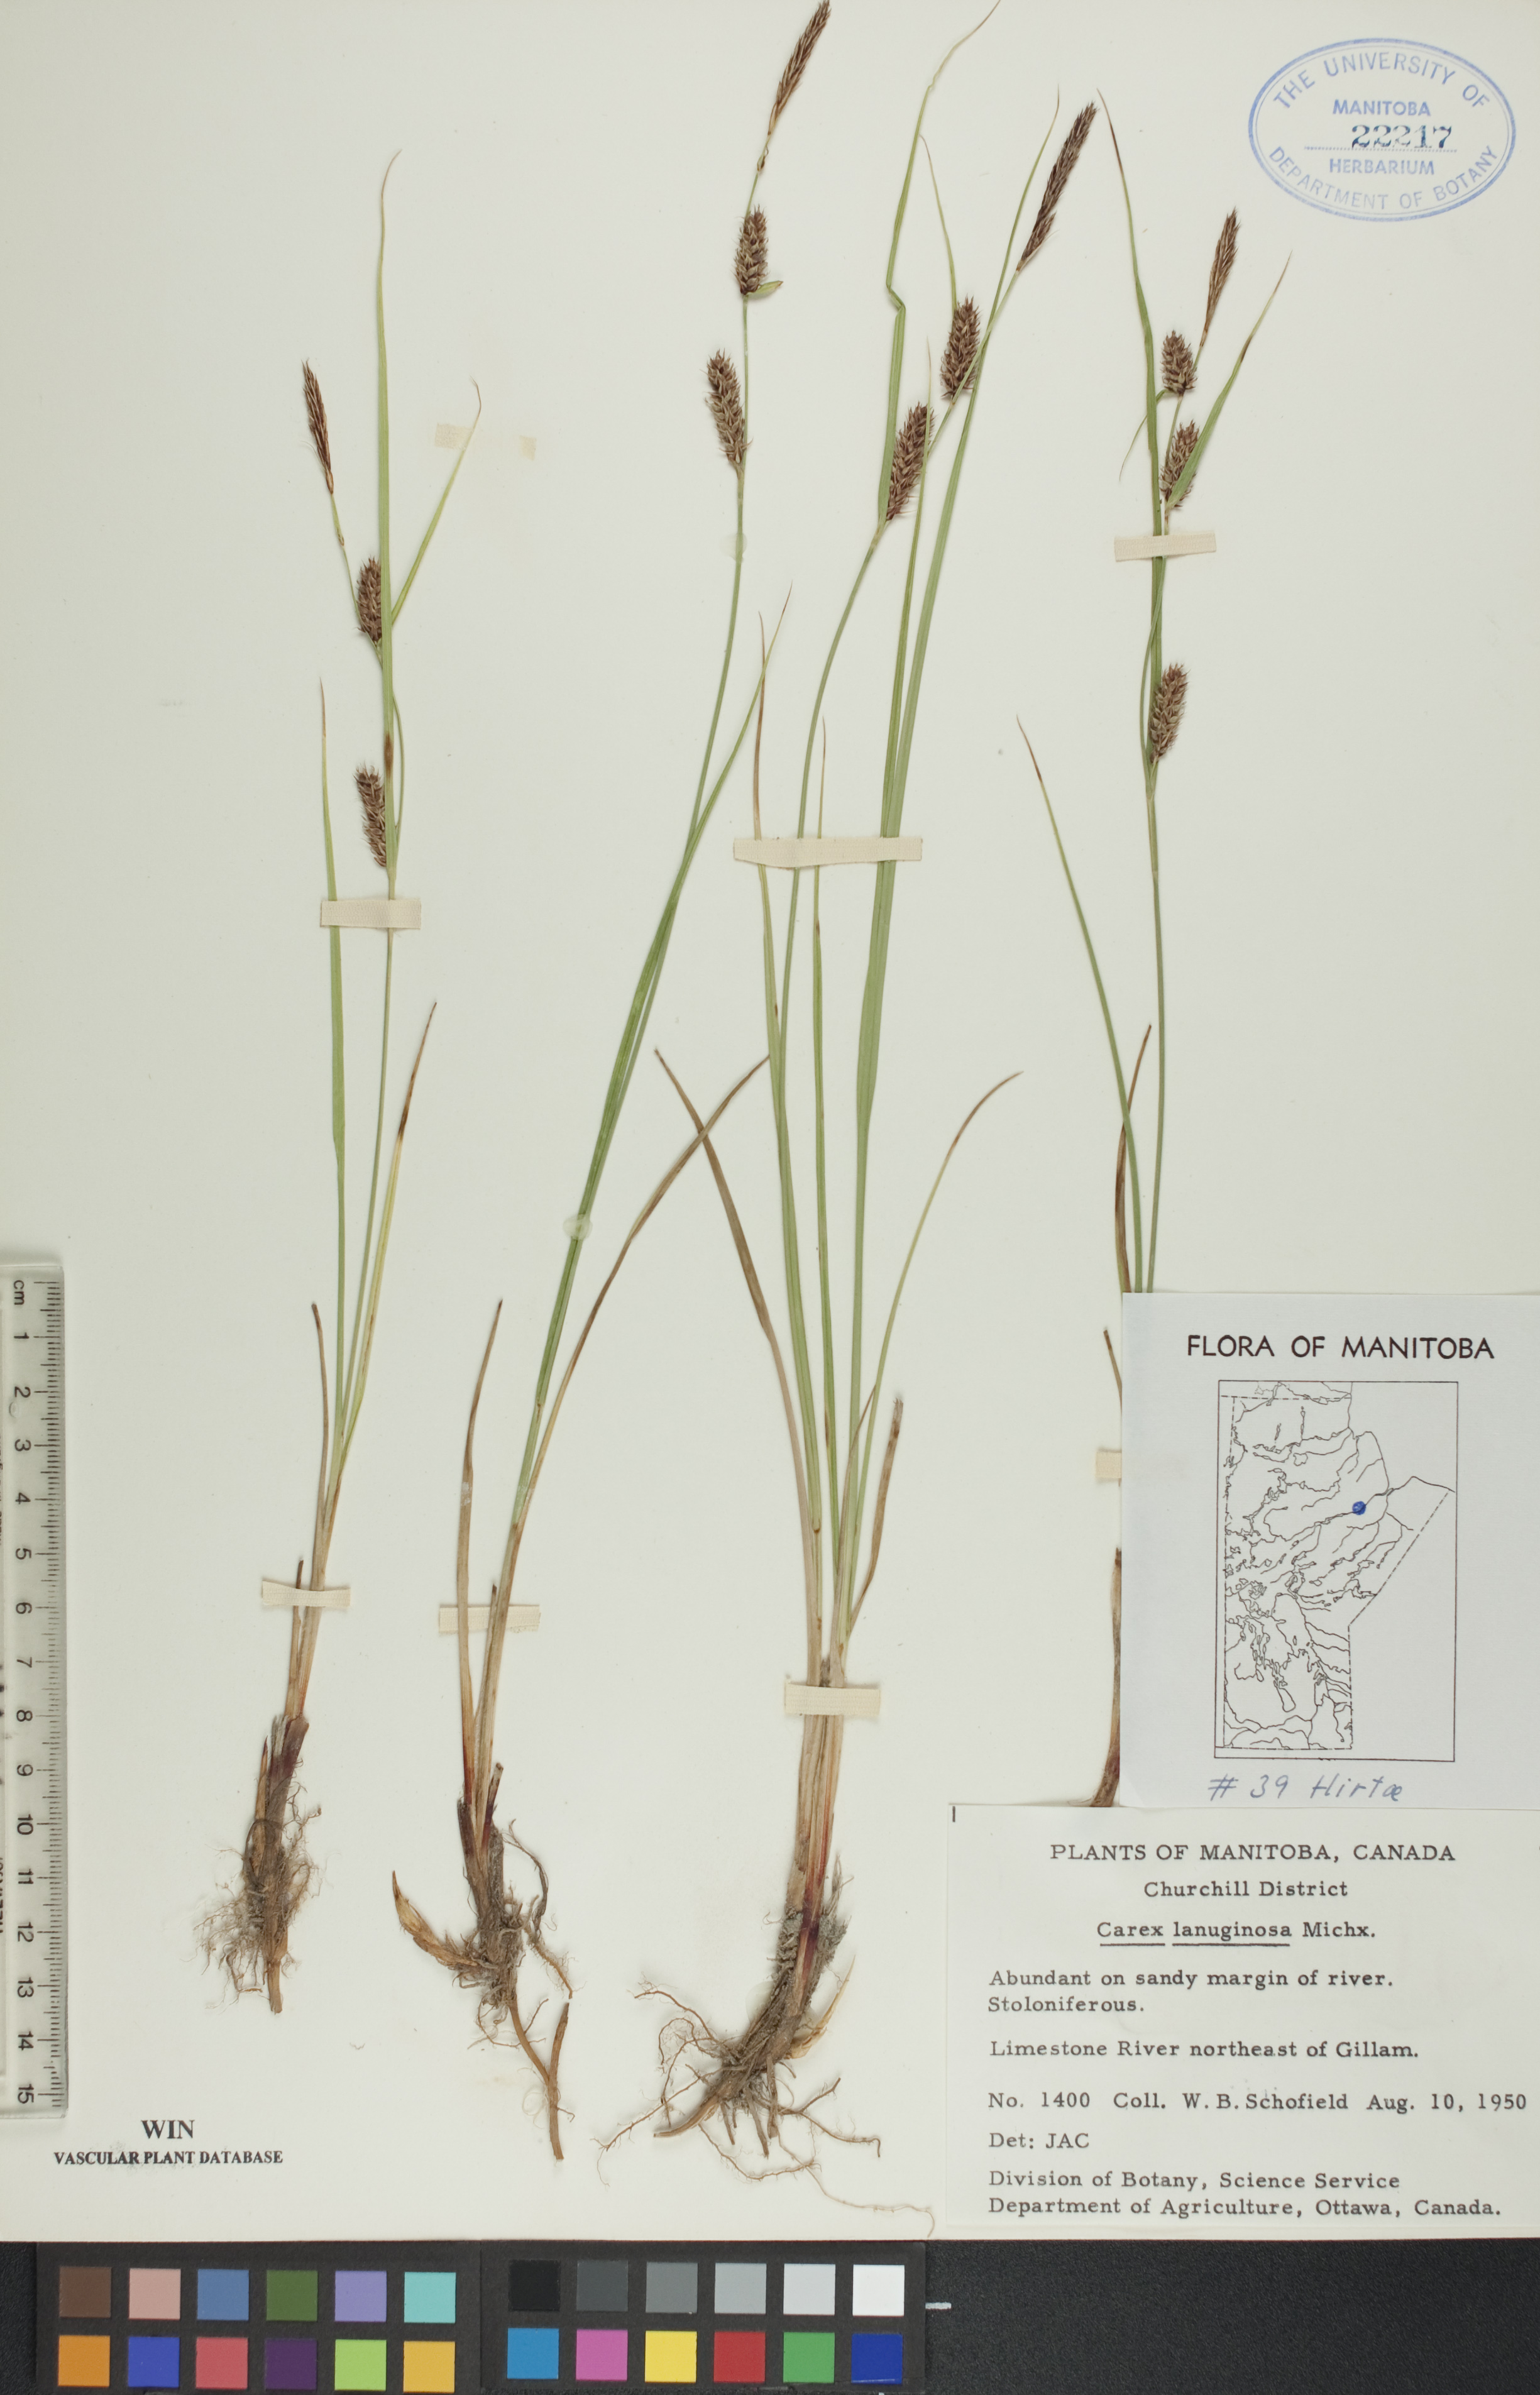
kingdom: Plantae
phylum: Tracheophyta
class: Liliopsida
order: Poales
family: Cyperaceae
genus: Carex
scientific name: Carex lasiocarpa
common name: Slender sedge
